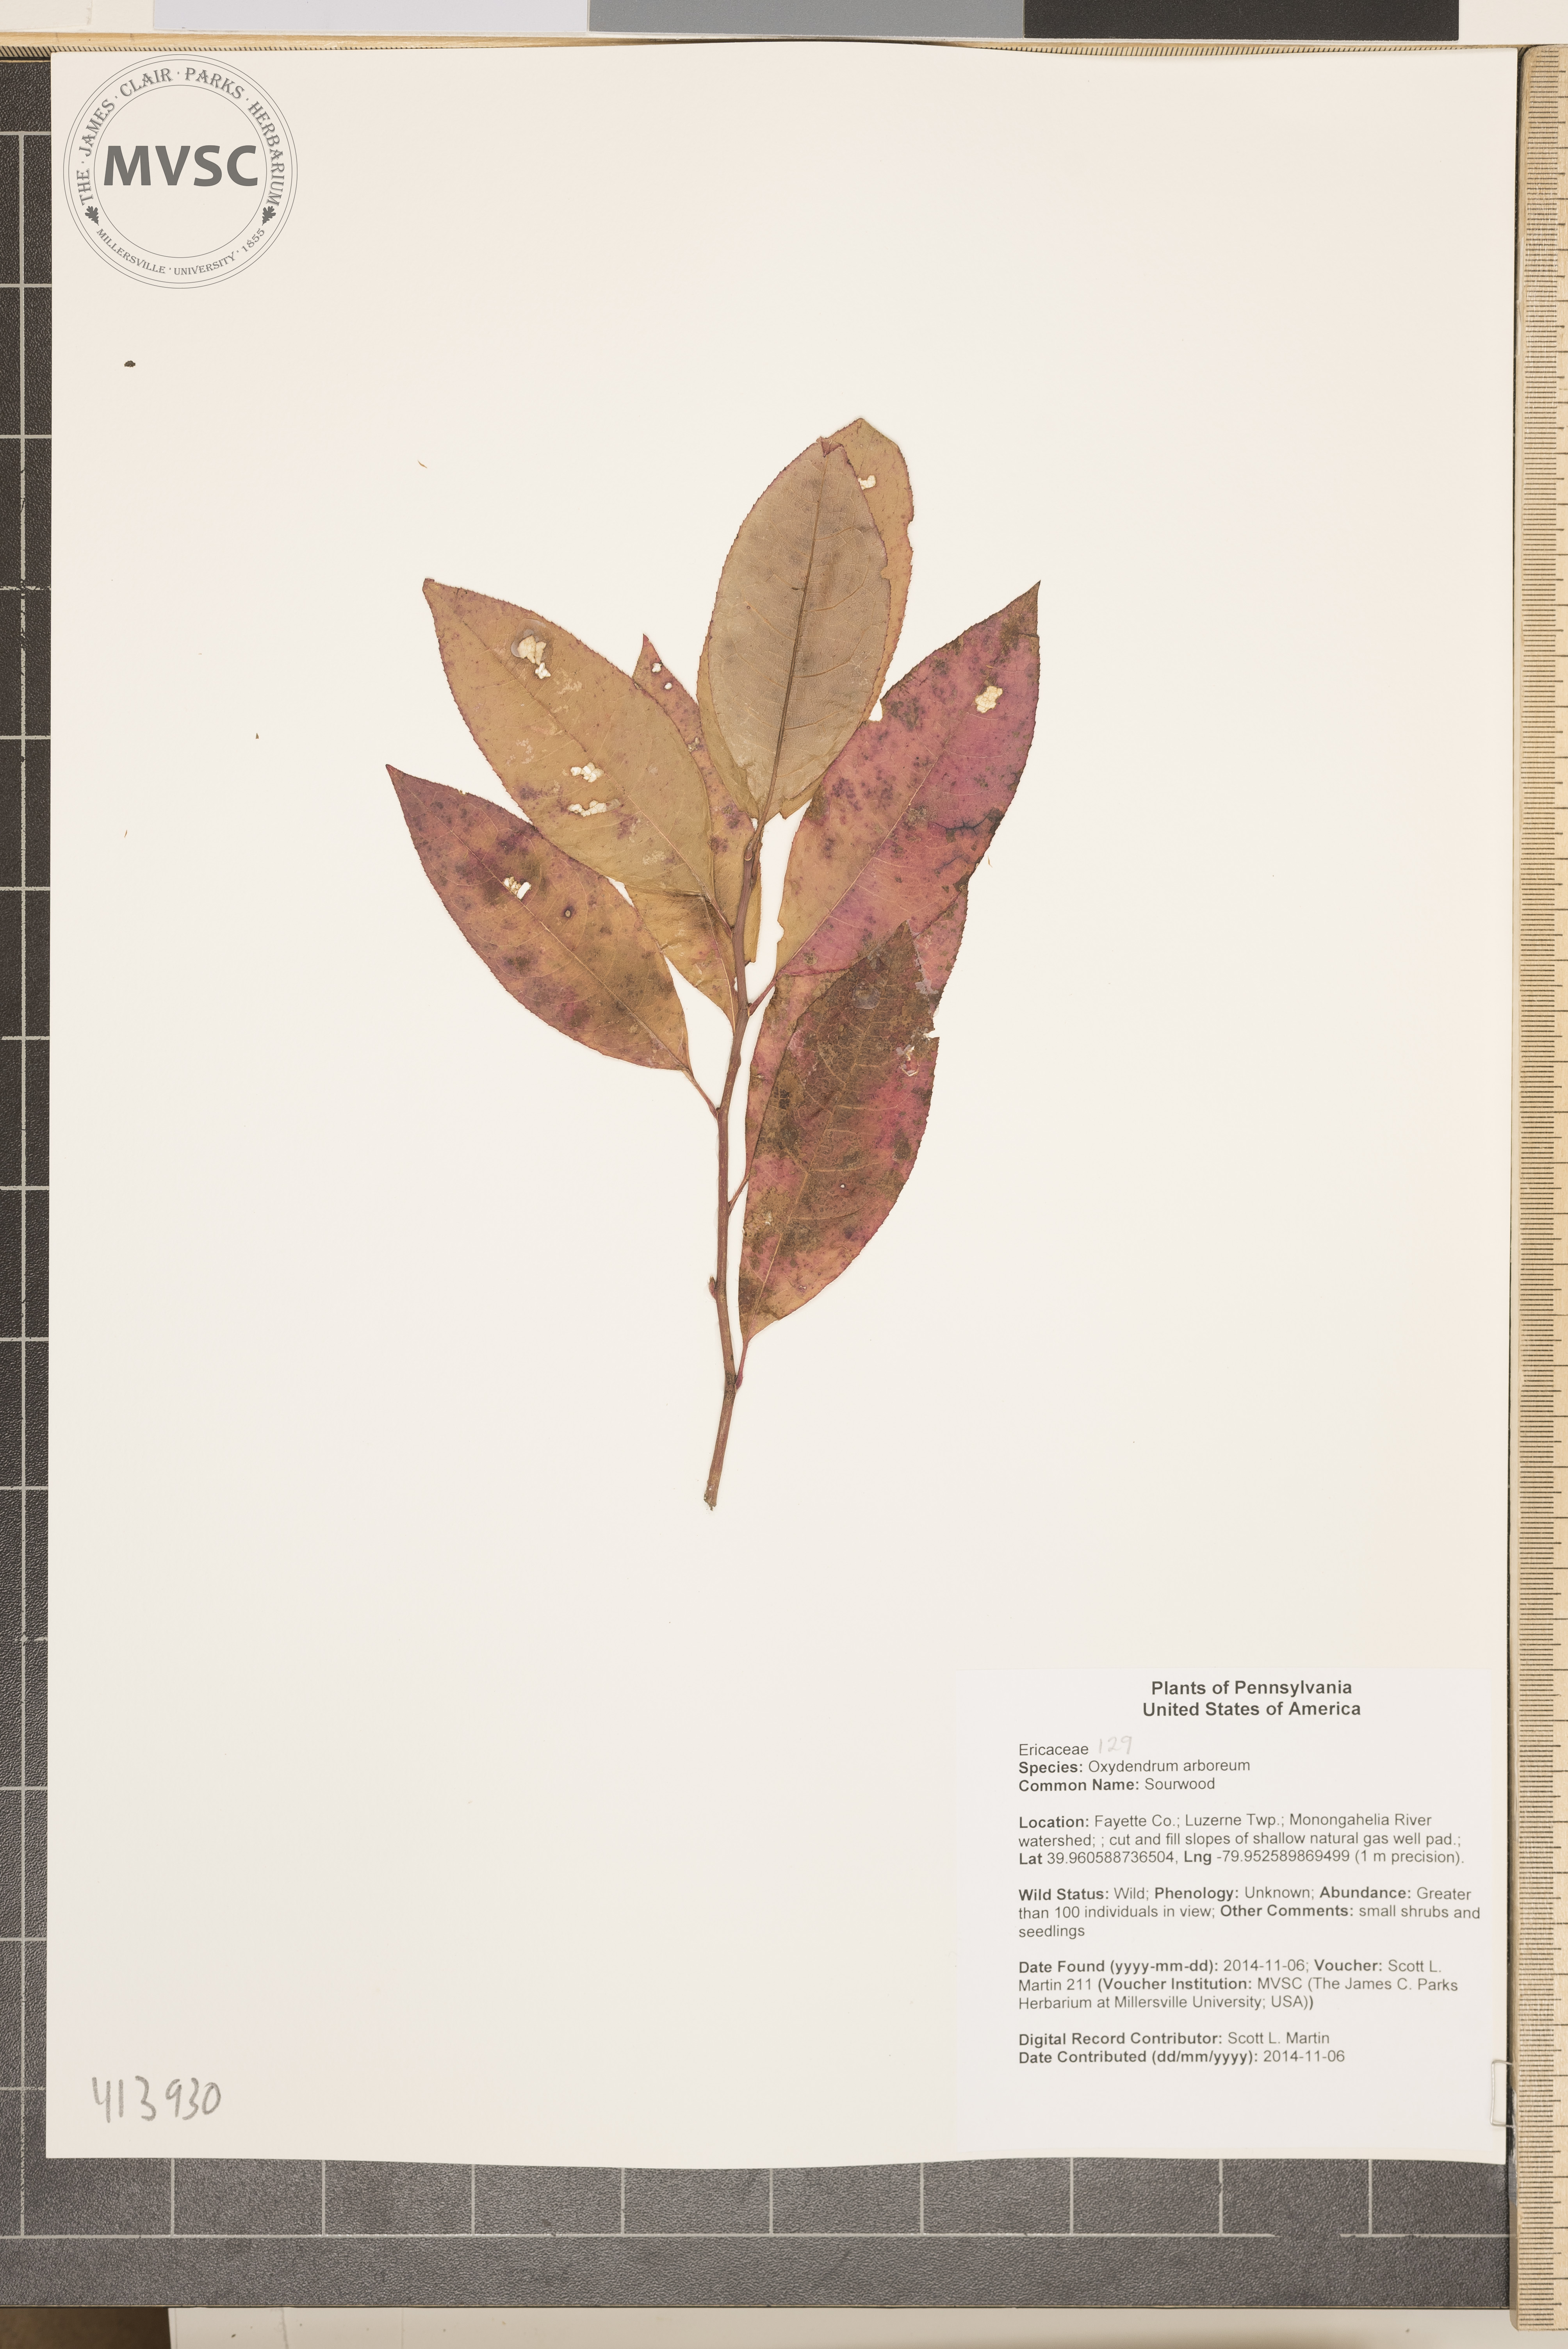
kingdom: Plantae
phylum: Tracheophyta
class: Magnoliopsida
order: Ericales
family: Ericaceae
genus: Oxydendrum
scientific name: Oxydendrum arboreum
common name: Sourwood
